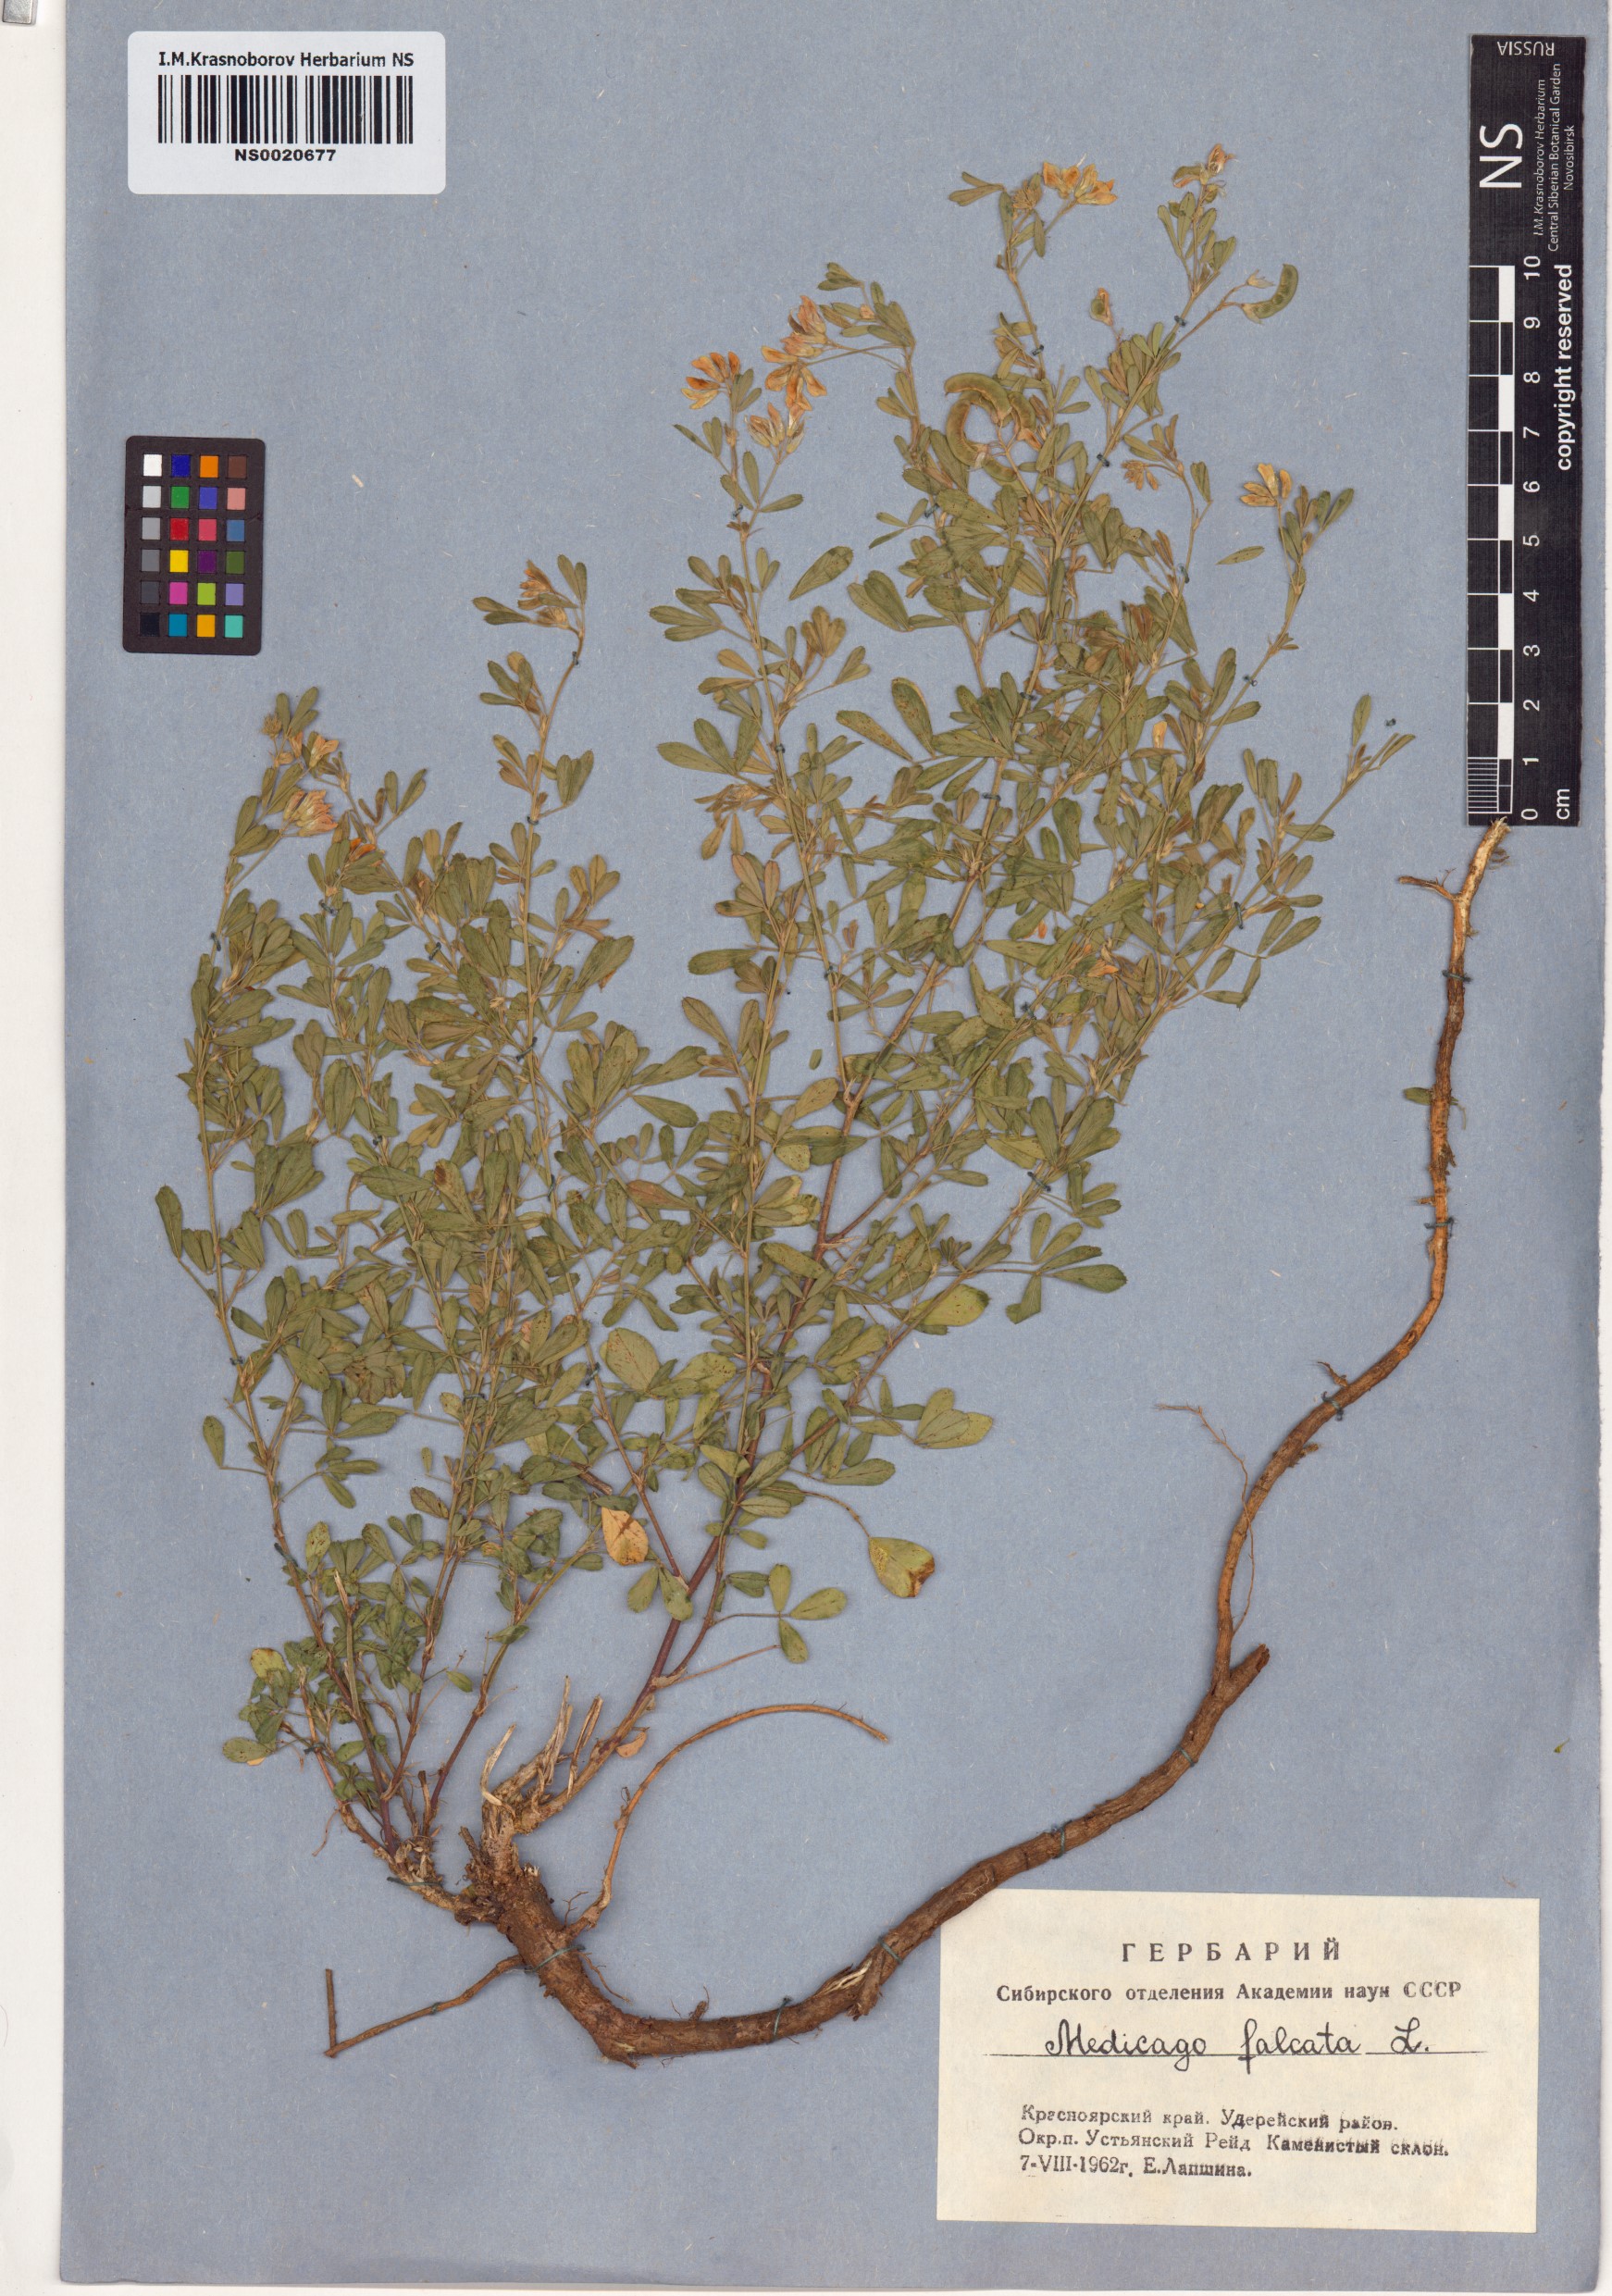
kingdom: Plantae
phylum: Tracheophyta
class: Magnoliopsida
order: Fabales
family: Fabaceae
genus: Medicago
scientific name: Medicago falcata
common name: Sickle medick
